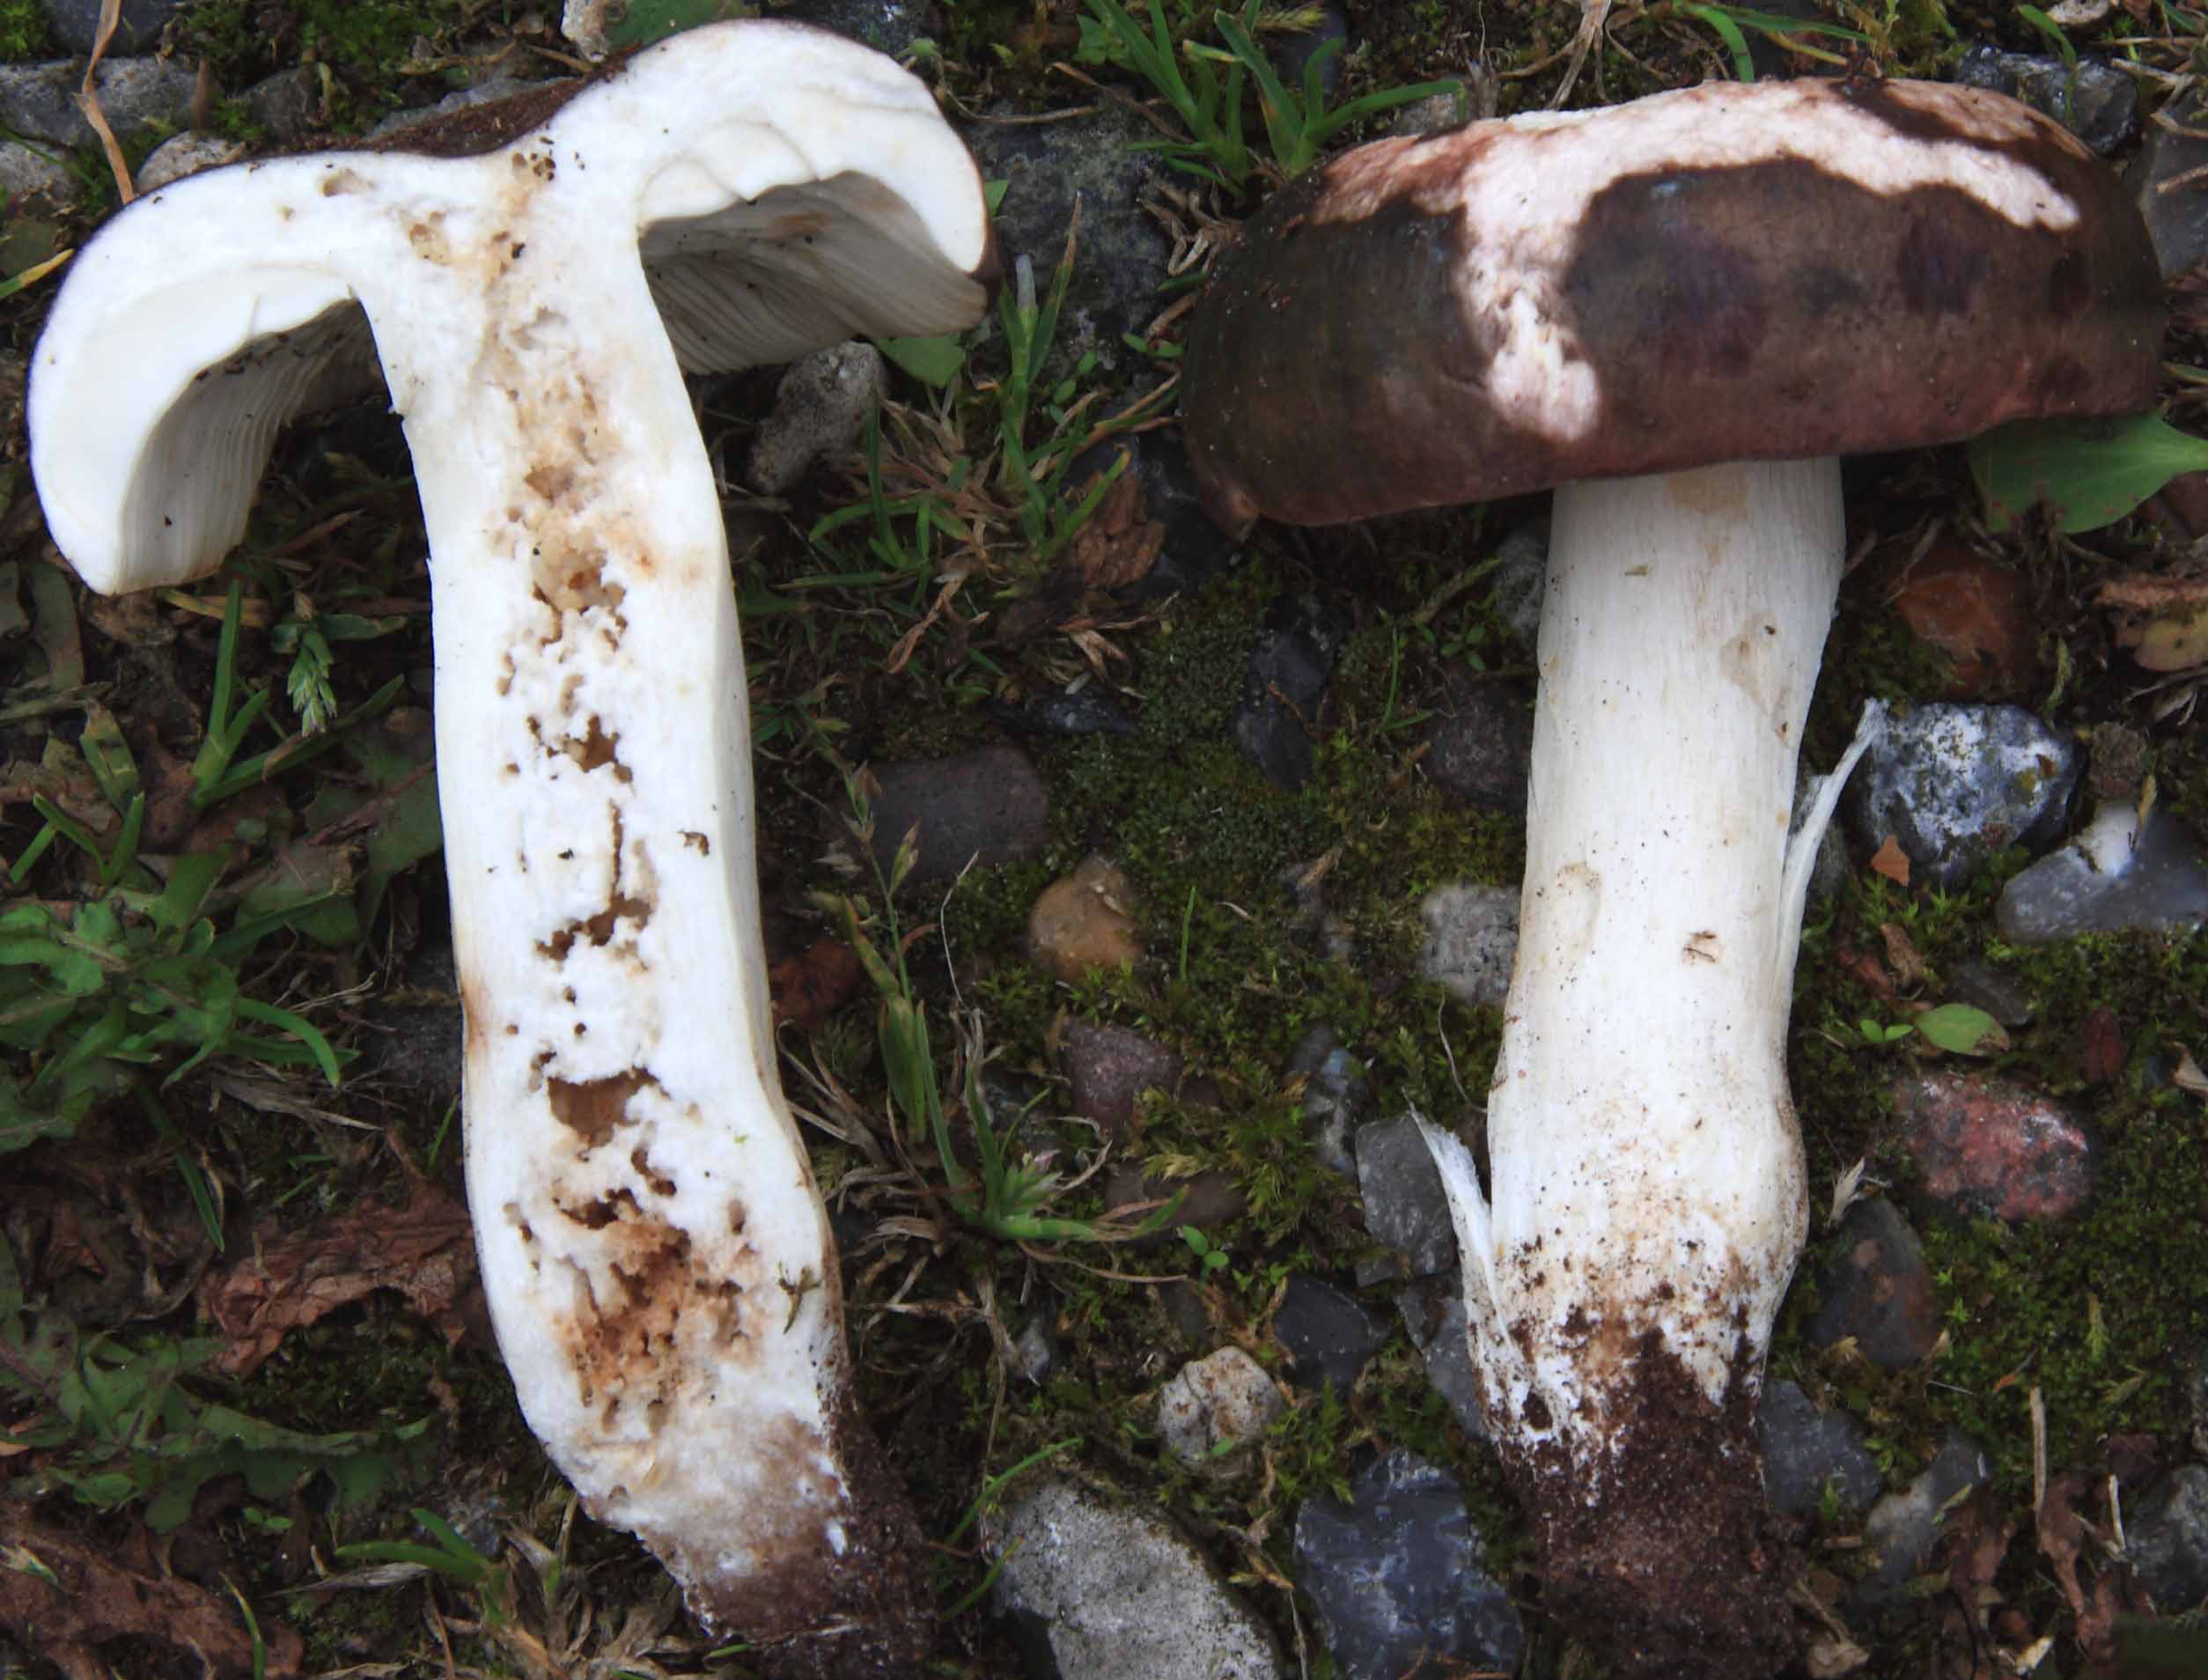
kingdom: Fungi
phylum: Basidiomycota
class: Agaricomycetes
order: Russulales
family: Russulaceae
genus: Russula
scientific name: Russula grisea
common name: grålig skørhat
